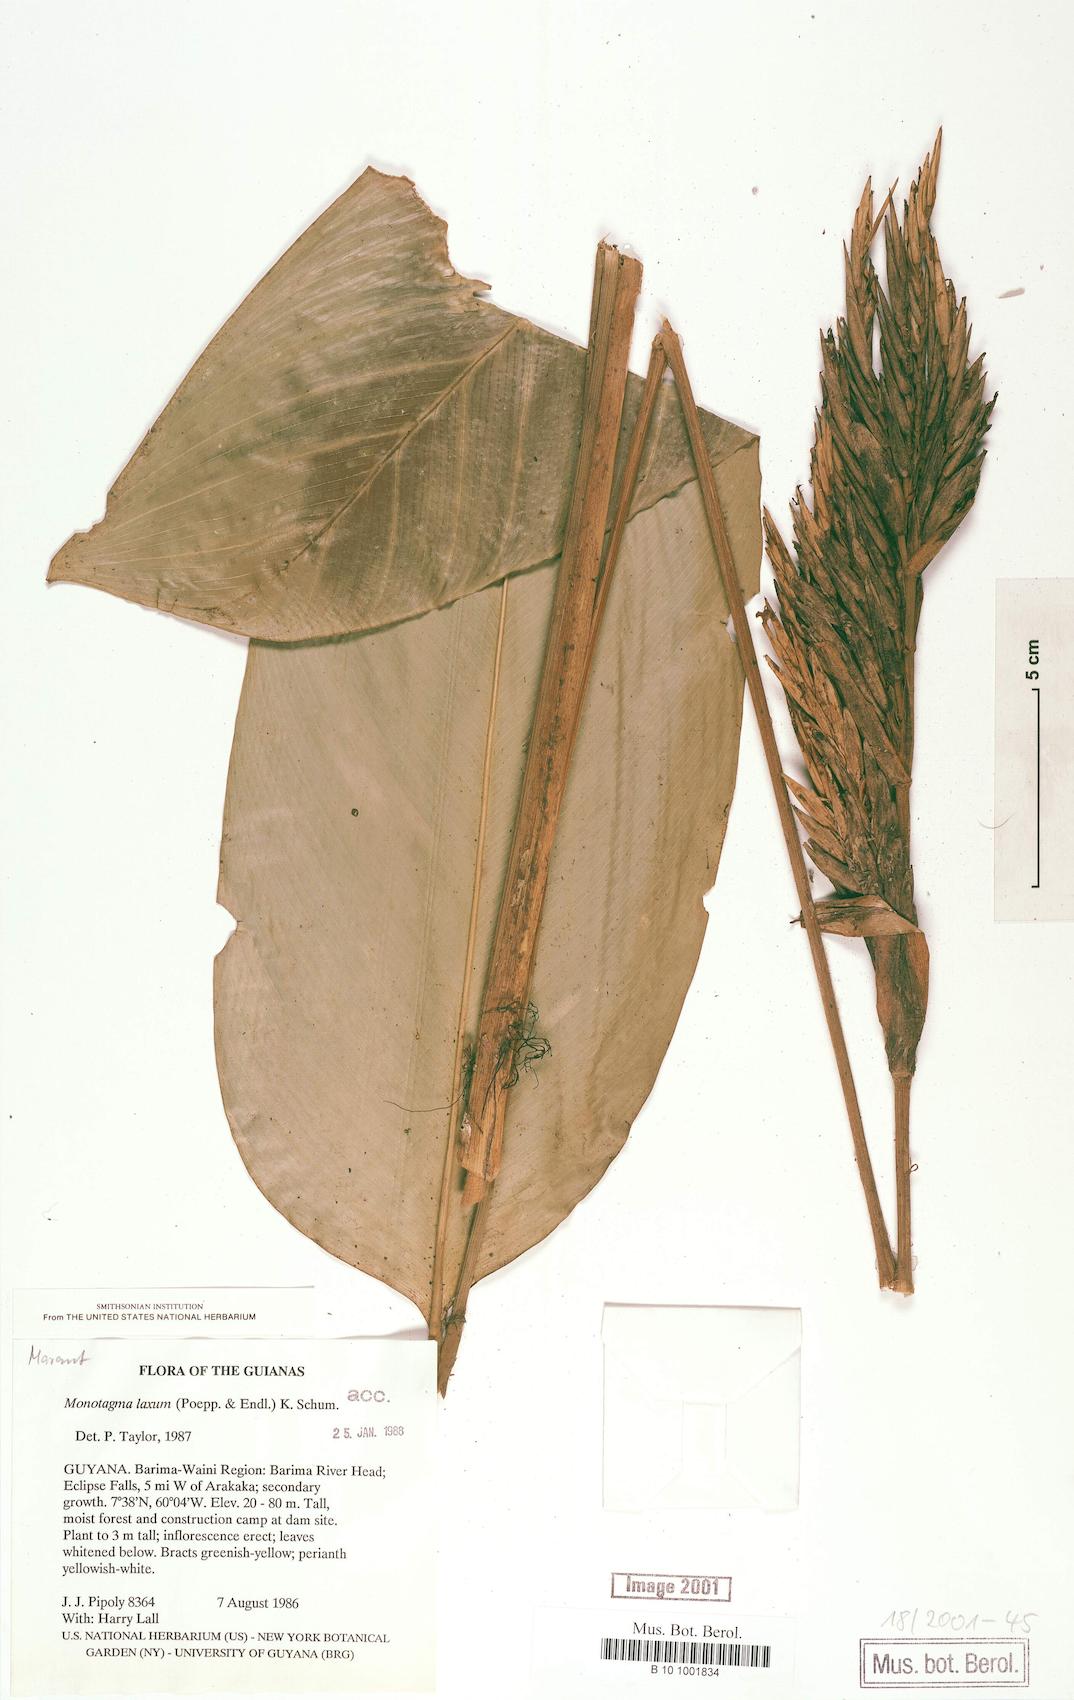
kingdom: Plantae
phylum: Tracheophyta
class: Liliopsida
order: Zingiberales
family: Marantaceae
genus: Monotagma
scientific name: Monotagma laxum
